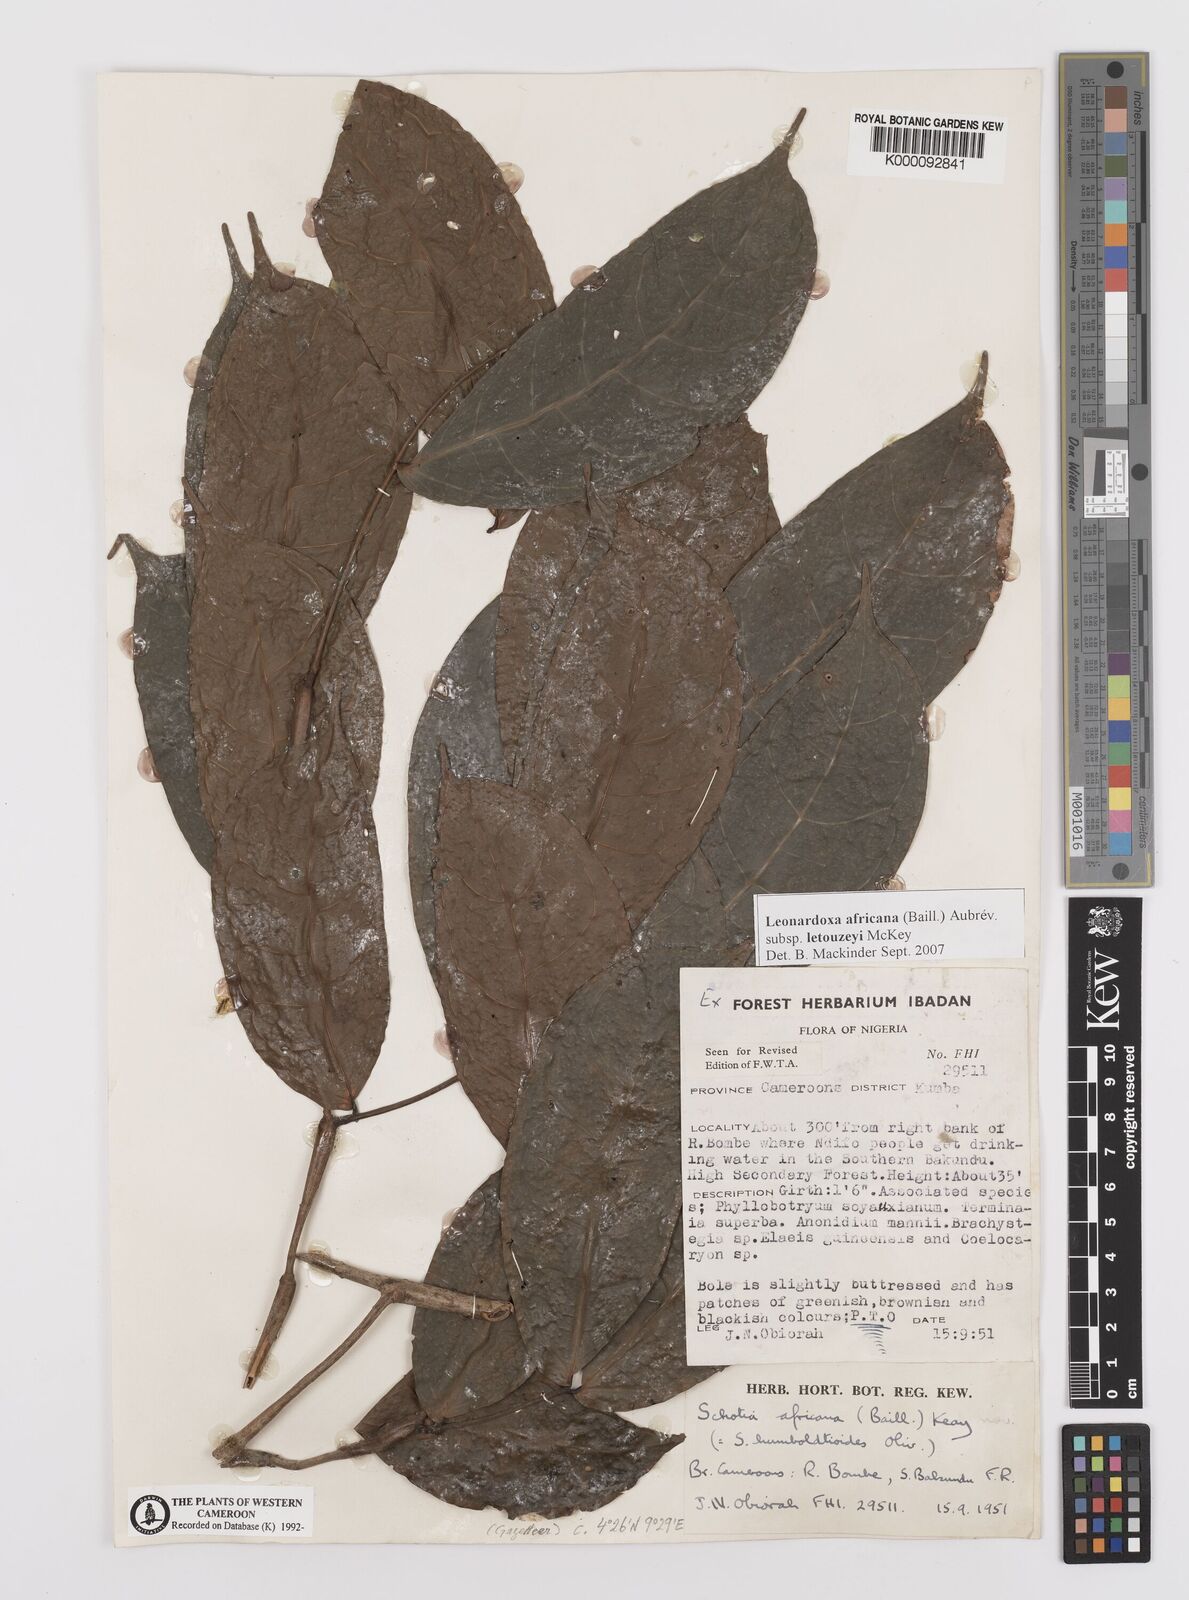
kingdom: Plantae
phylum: Tracheophyta
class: Magnoliopsida
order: Fabales
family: Fabaceae
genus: Leonardoxa
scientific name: Leonardoxa
